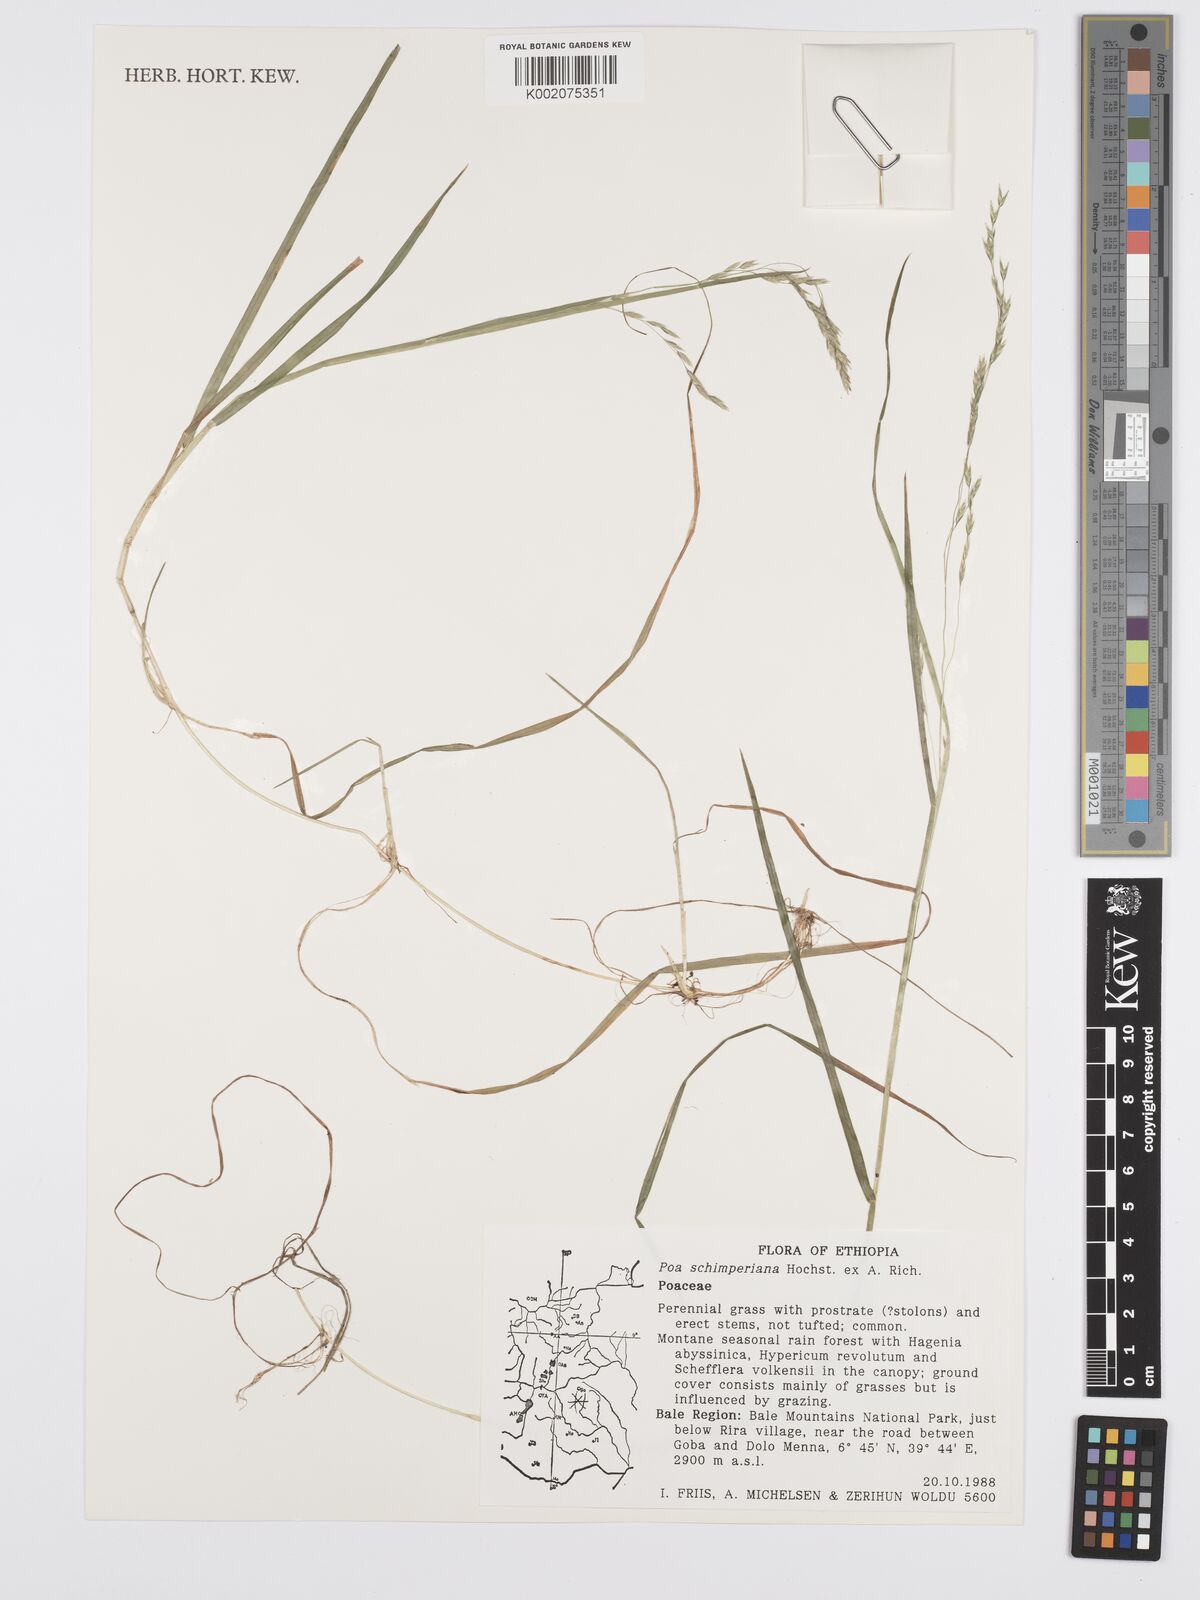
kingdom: Plantae
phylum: Tracheophyta
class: Liliopsida
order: Poales
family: Poaceae
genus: Poa
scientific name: Poa schimperiana
